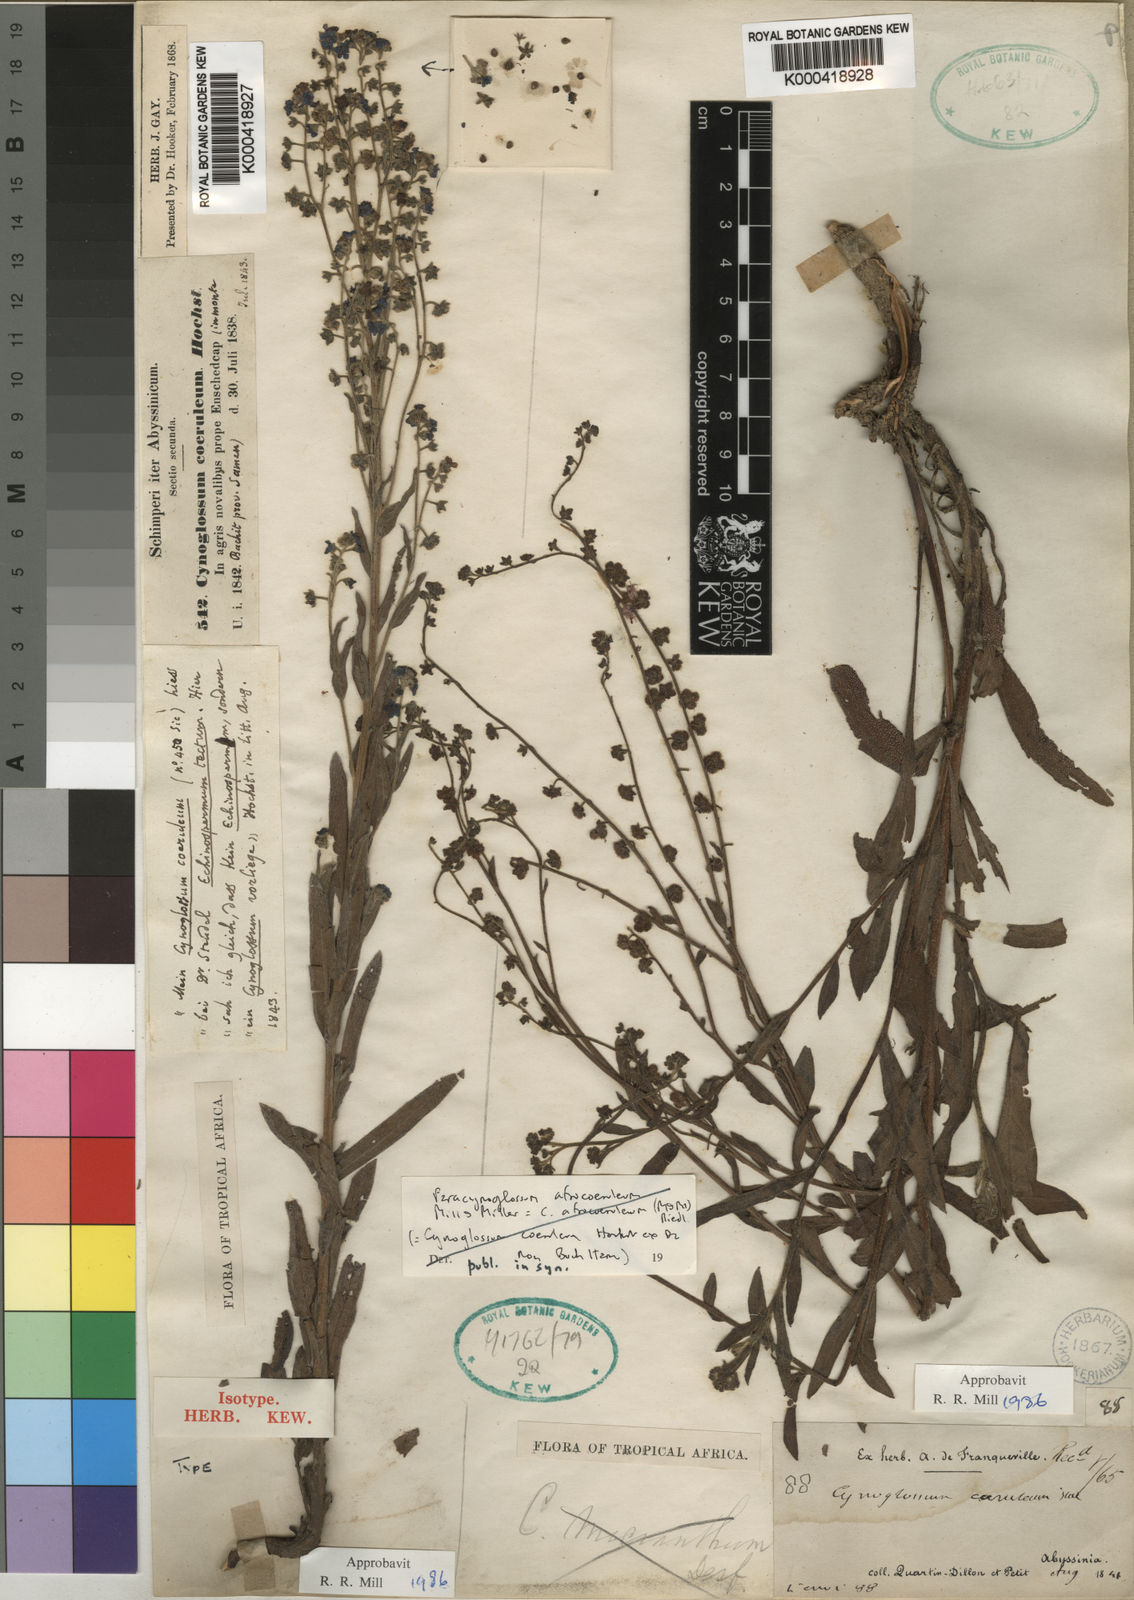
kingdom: Plantae
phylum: Tracheophyta
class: Magnoliopsida
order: Boraginales
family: Boraginaceae
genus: Paracynoglossum
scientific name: Paracynoglossum afrocaeruleum
